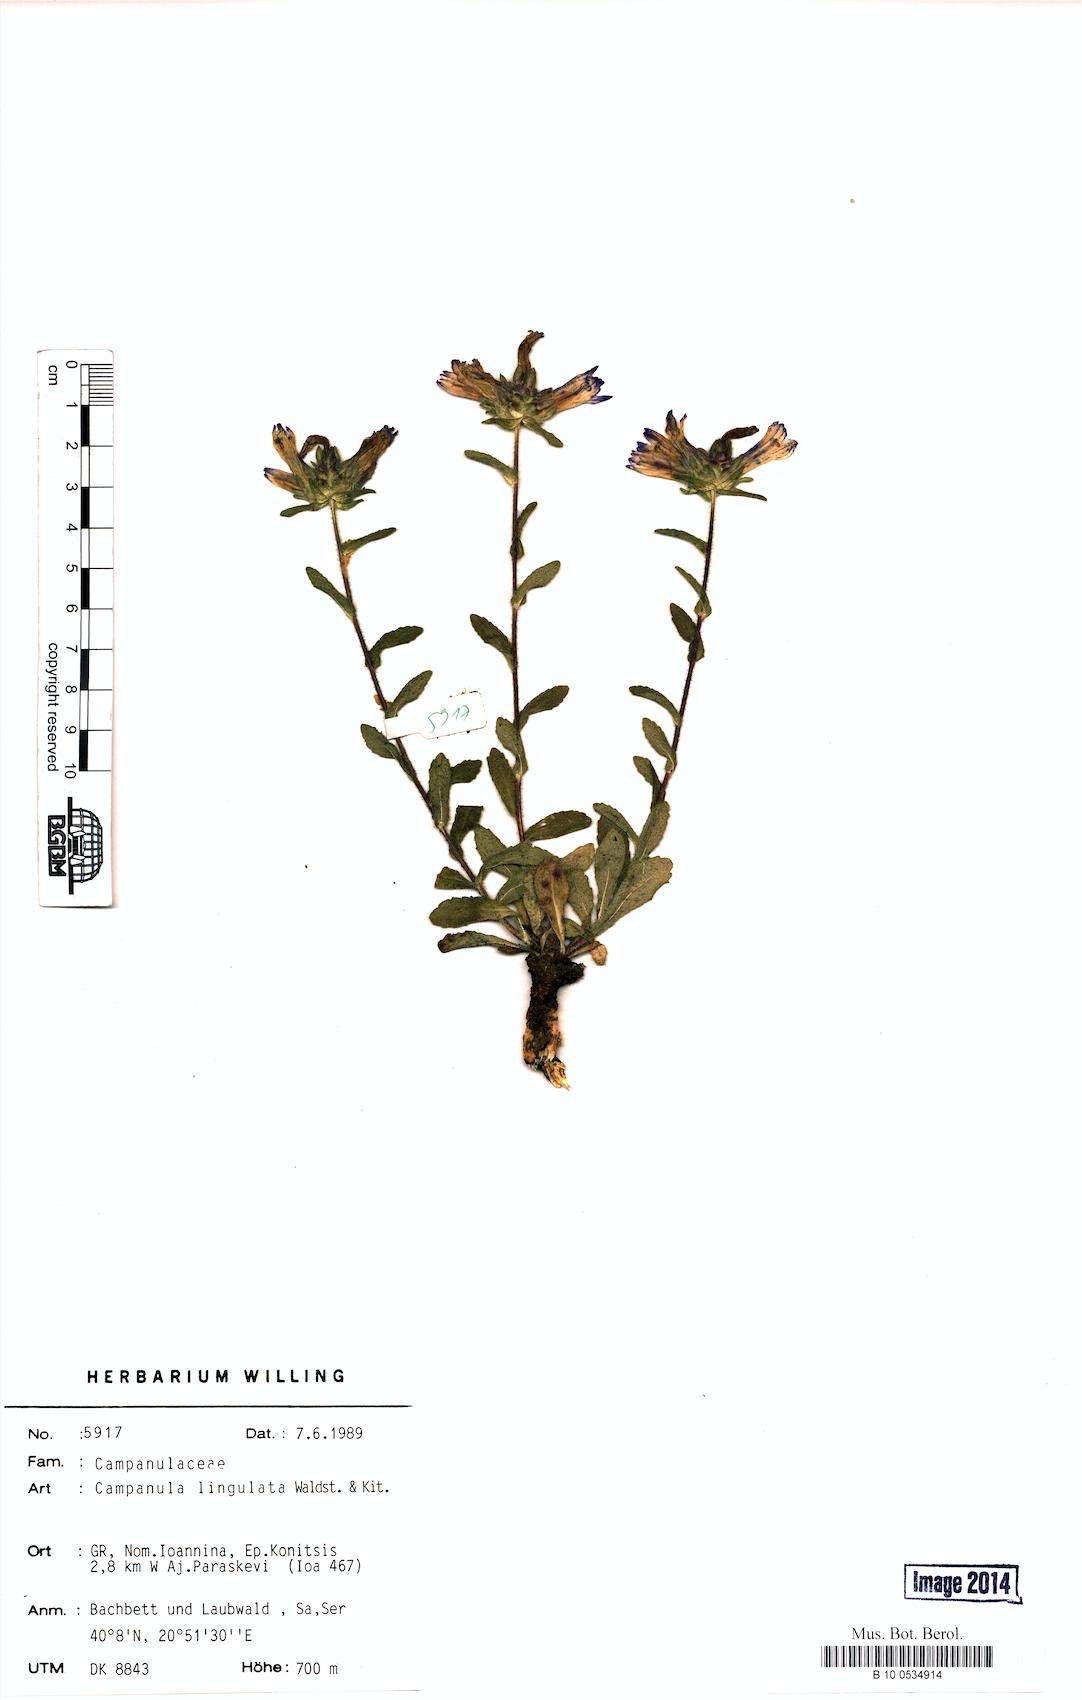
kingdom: Plantae
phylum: Tracheophyta
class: Magnoliopsida
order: Asterales
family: Campanulaceae
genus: Campanula
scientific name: Campanula lingulata
